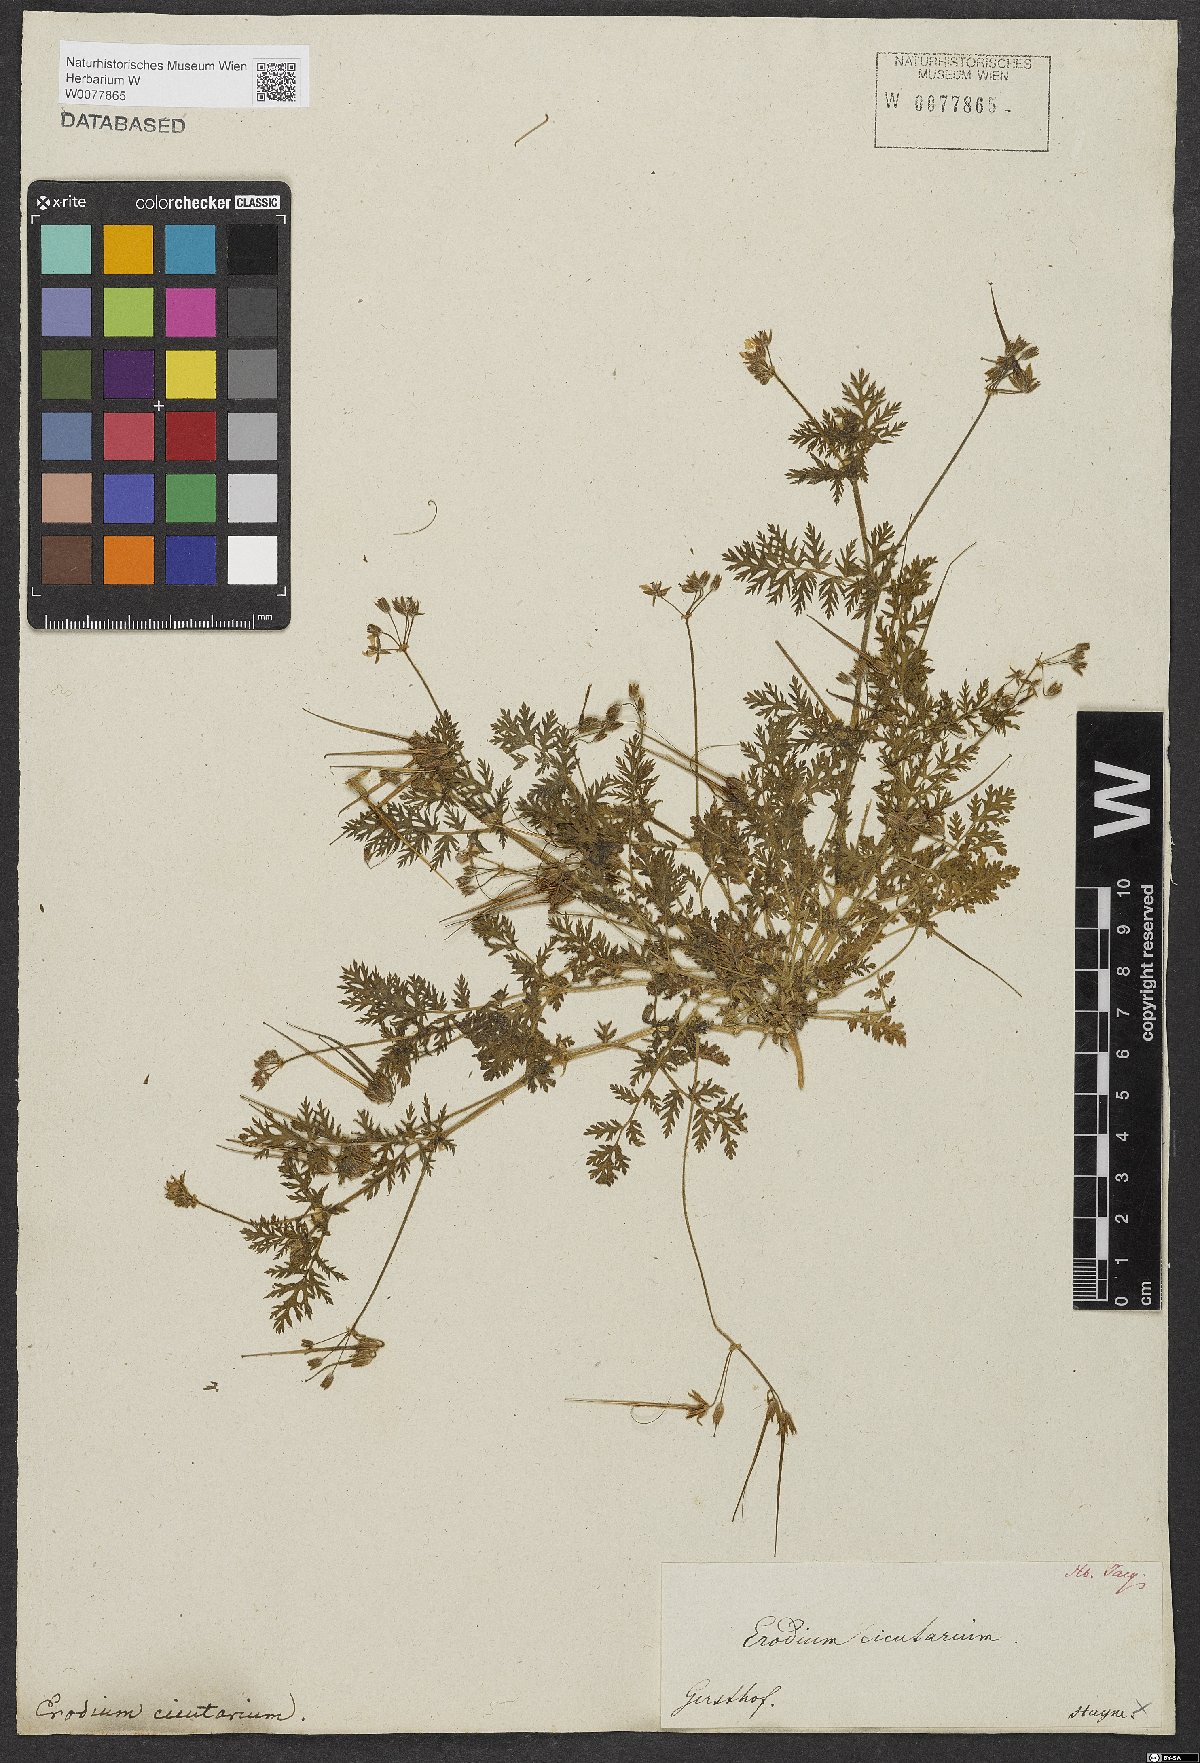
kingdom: Plantae
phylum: Tracheophyta
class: Magnoliopsida
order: Geraniales
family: Geraniaceae
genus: Erodium
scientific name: Erodium cicutarium
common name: Common stork's-bill
